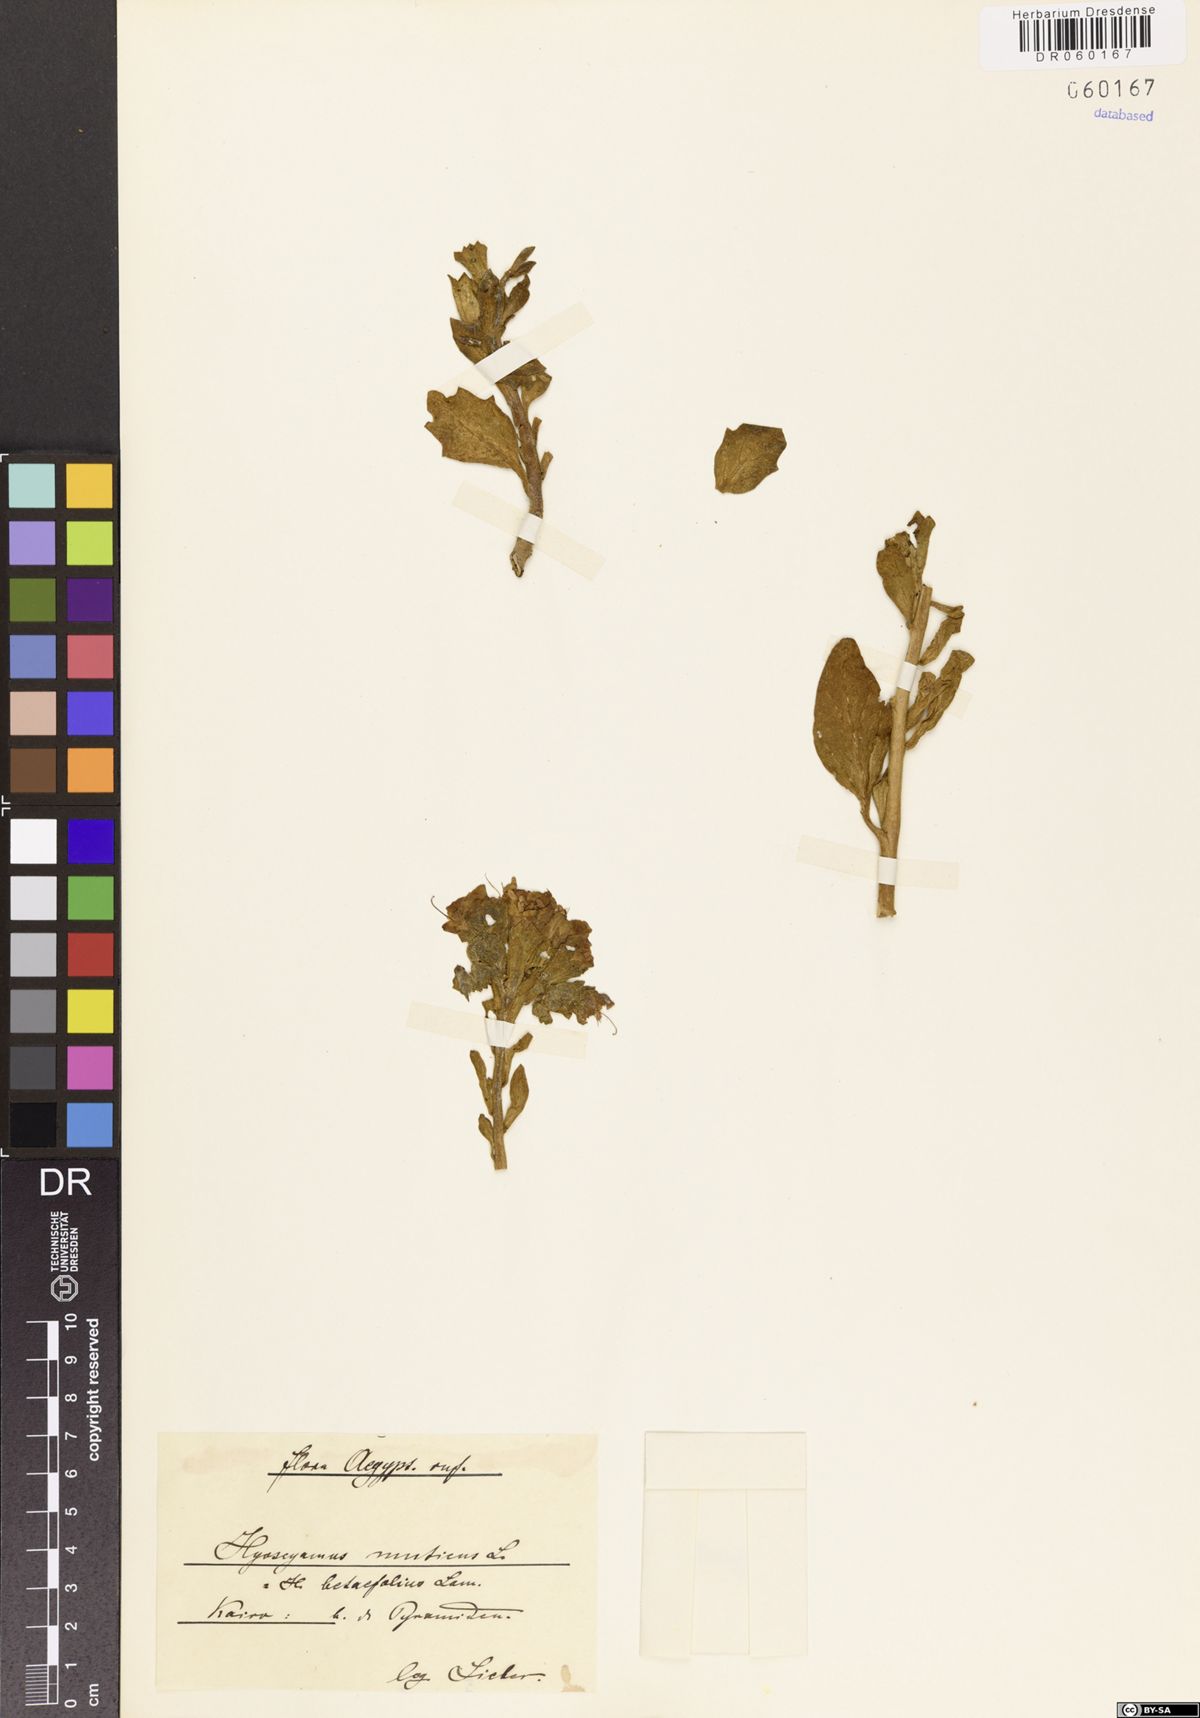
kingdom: Plantae
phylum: Tracheophyta
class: Magnoliopsida
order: Solanales
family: Solanaceae
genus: Hyoscyamus
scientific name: Hyoscyamus muticus
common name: Henbane
